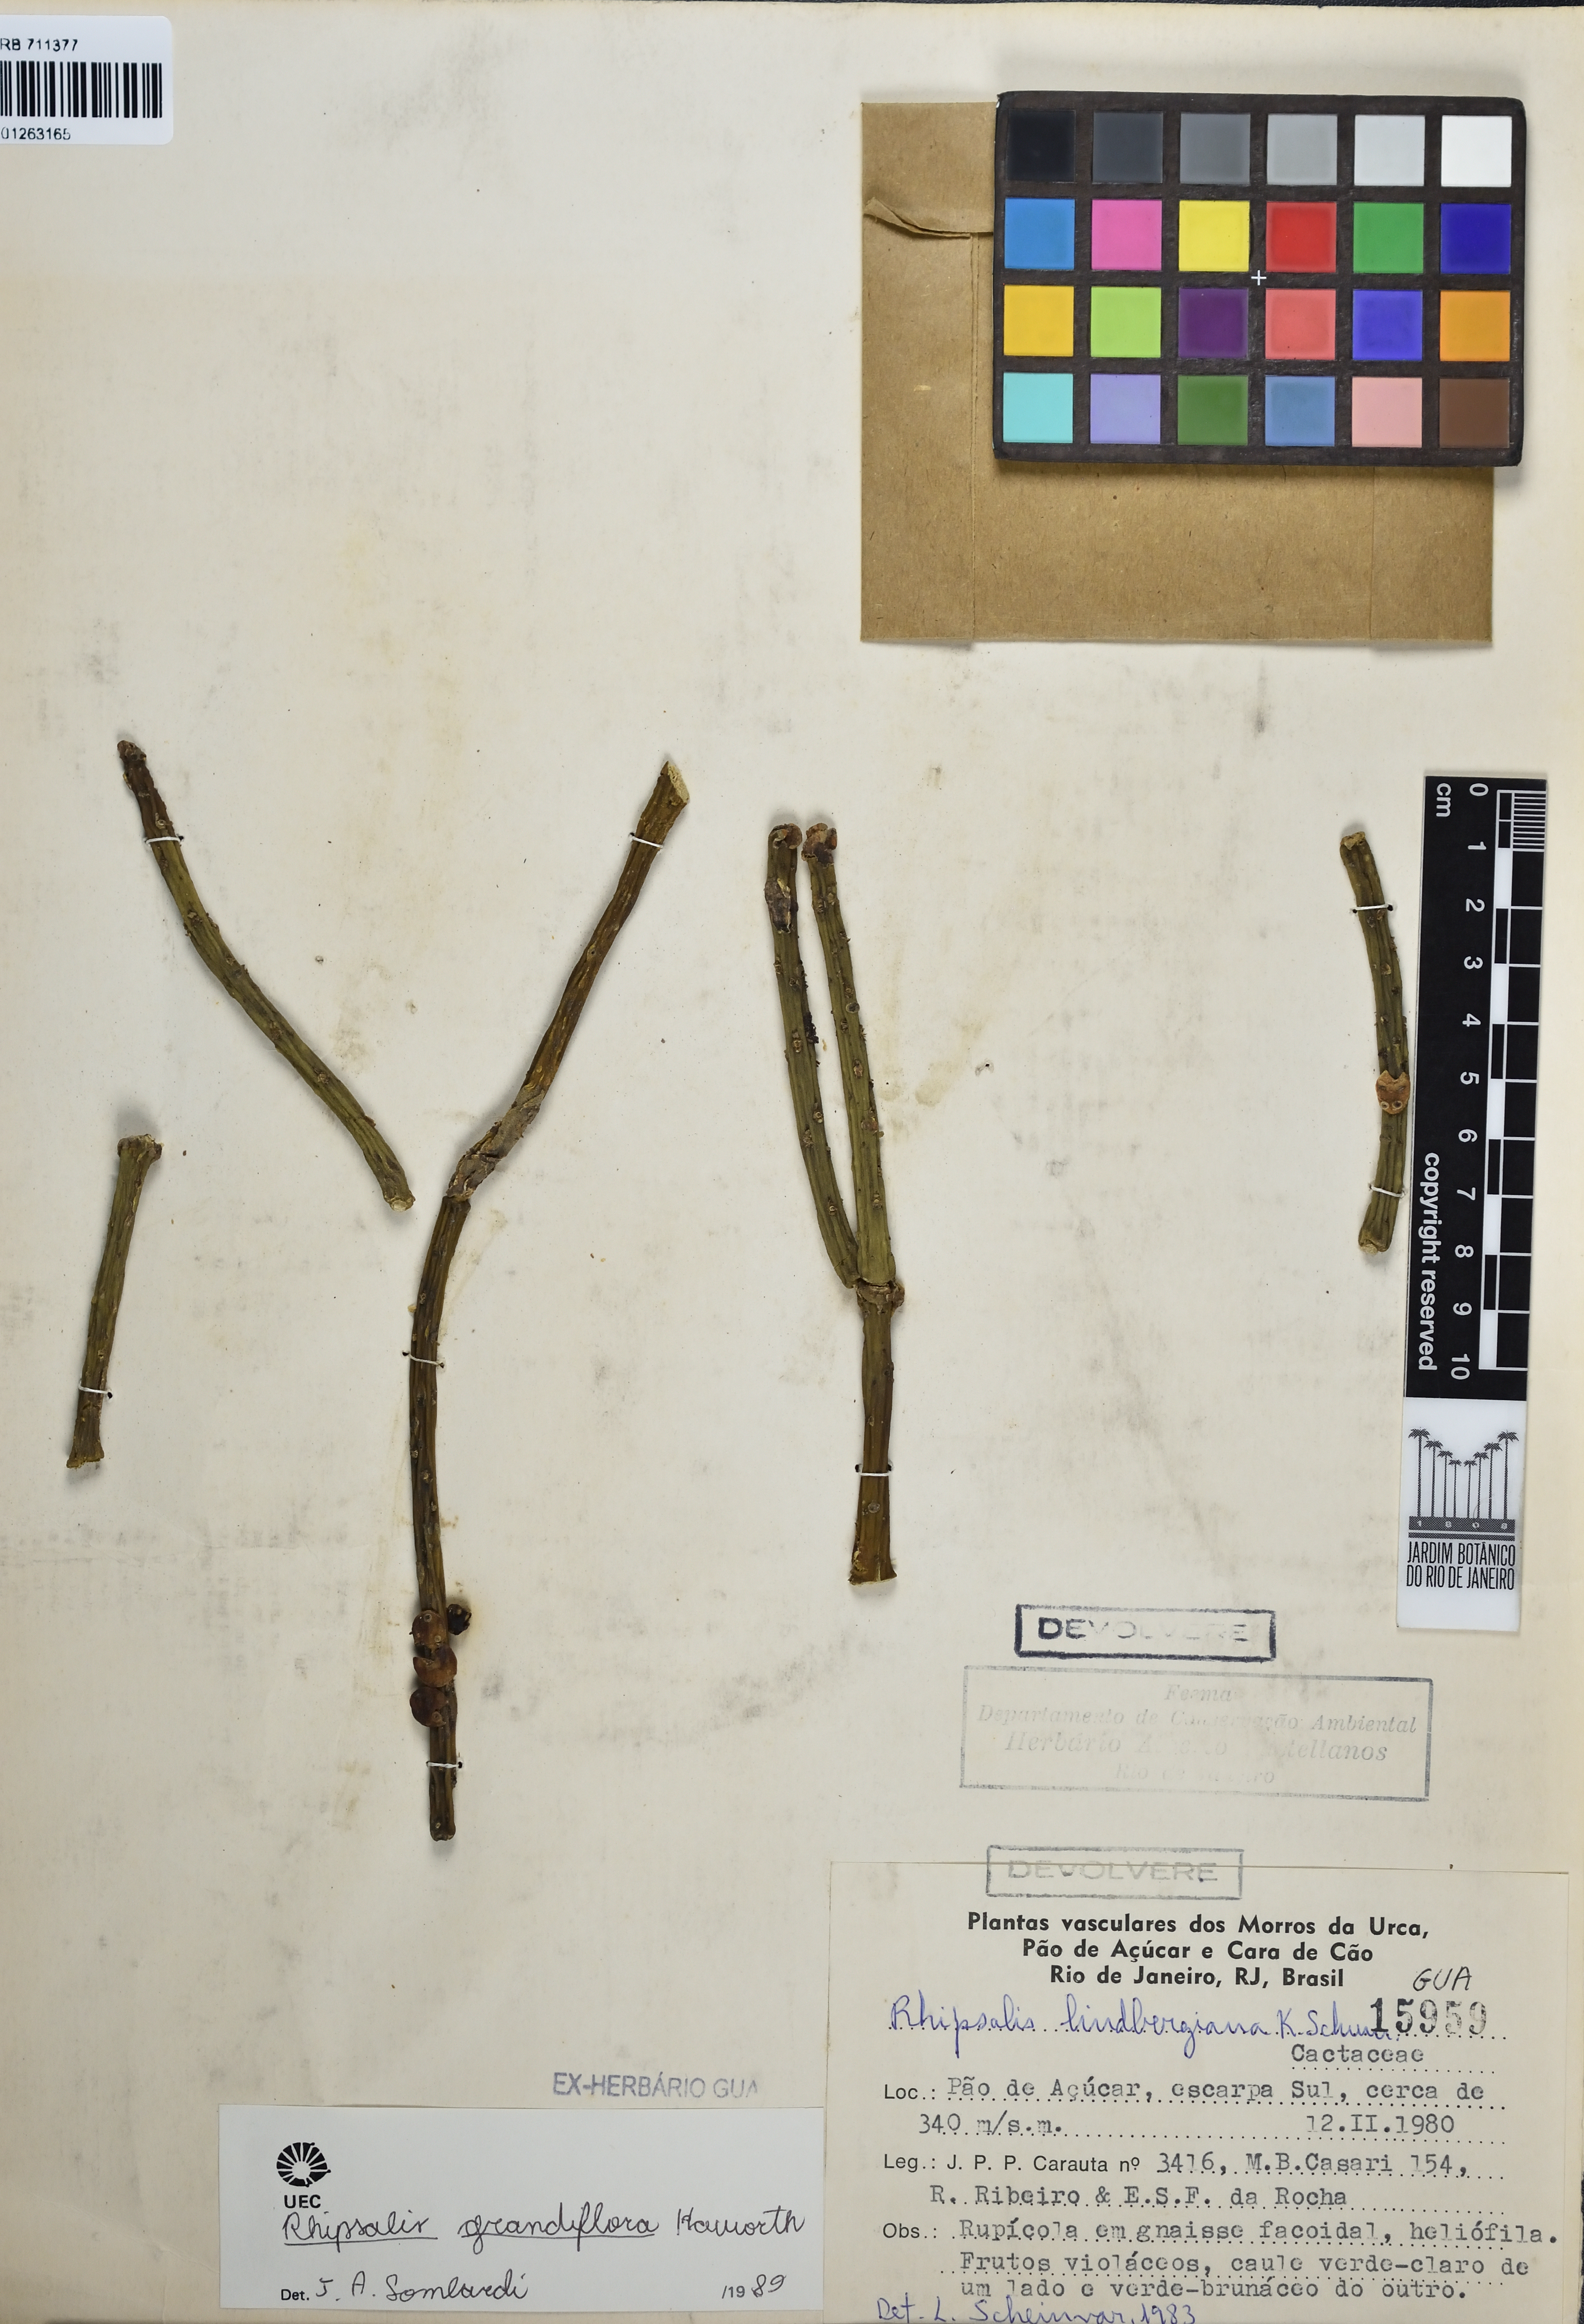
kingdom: Plantae
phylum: Tracheophyta
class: Magnoliopsida
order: Caryophyllales
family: Cactaceae
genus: Rhipsalis
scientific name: Rhipsalis grandiflora
